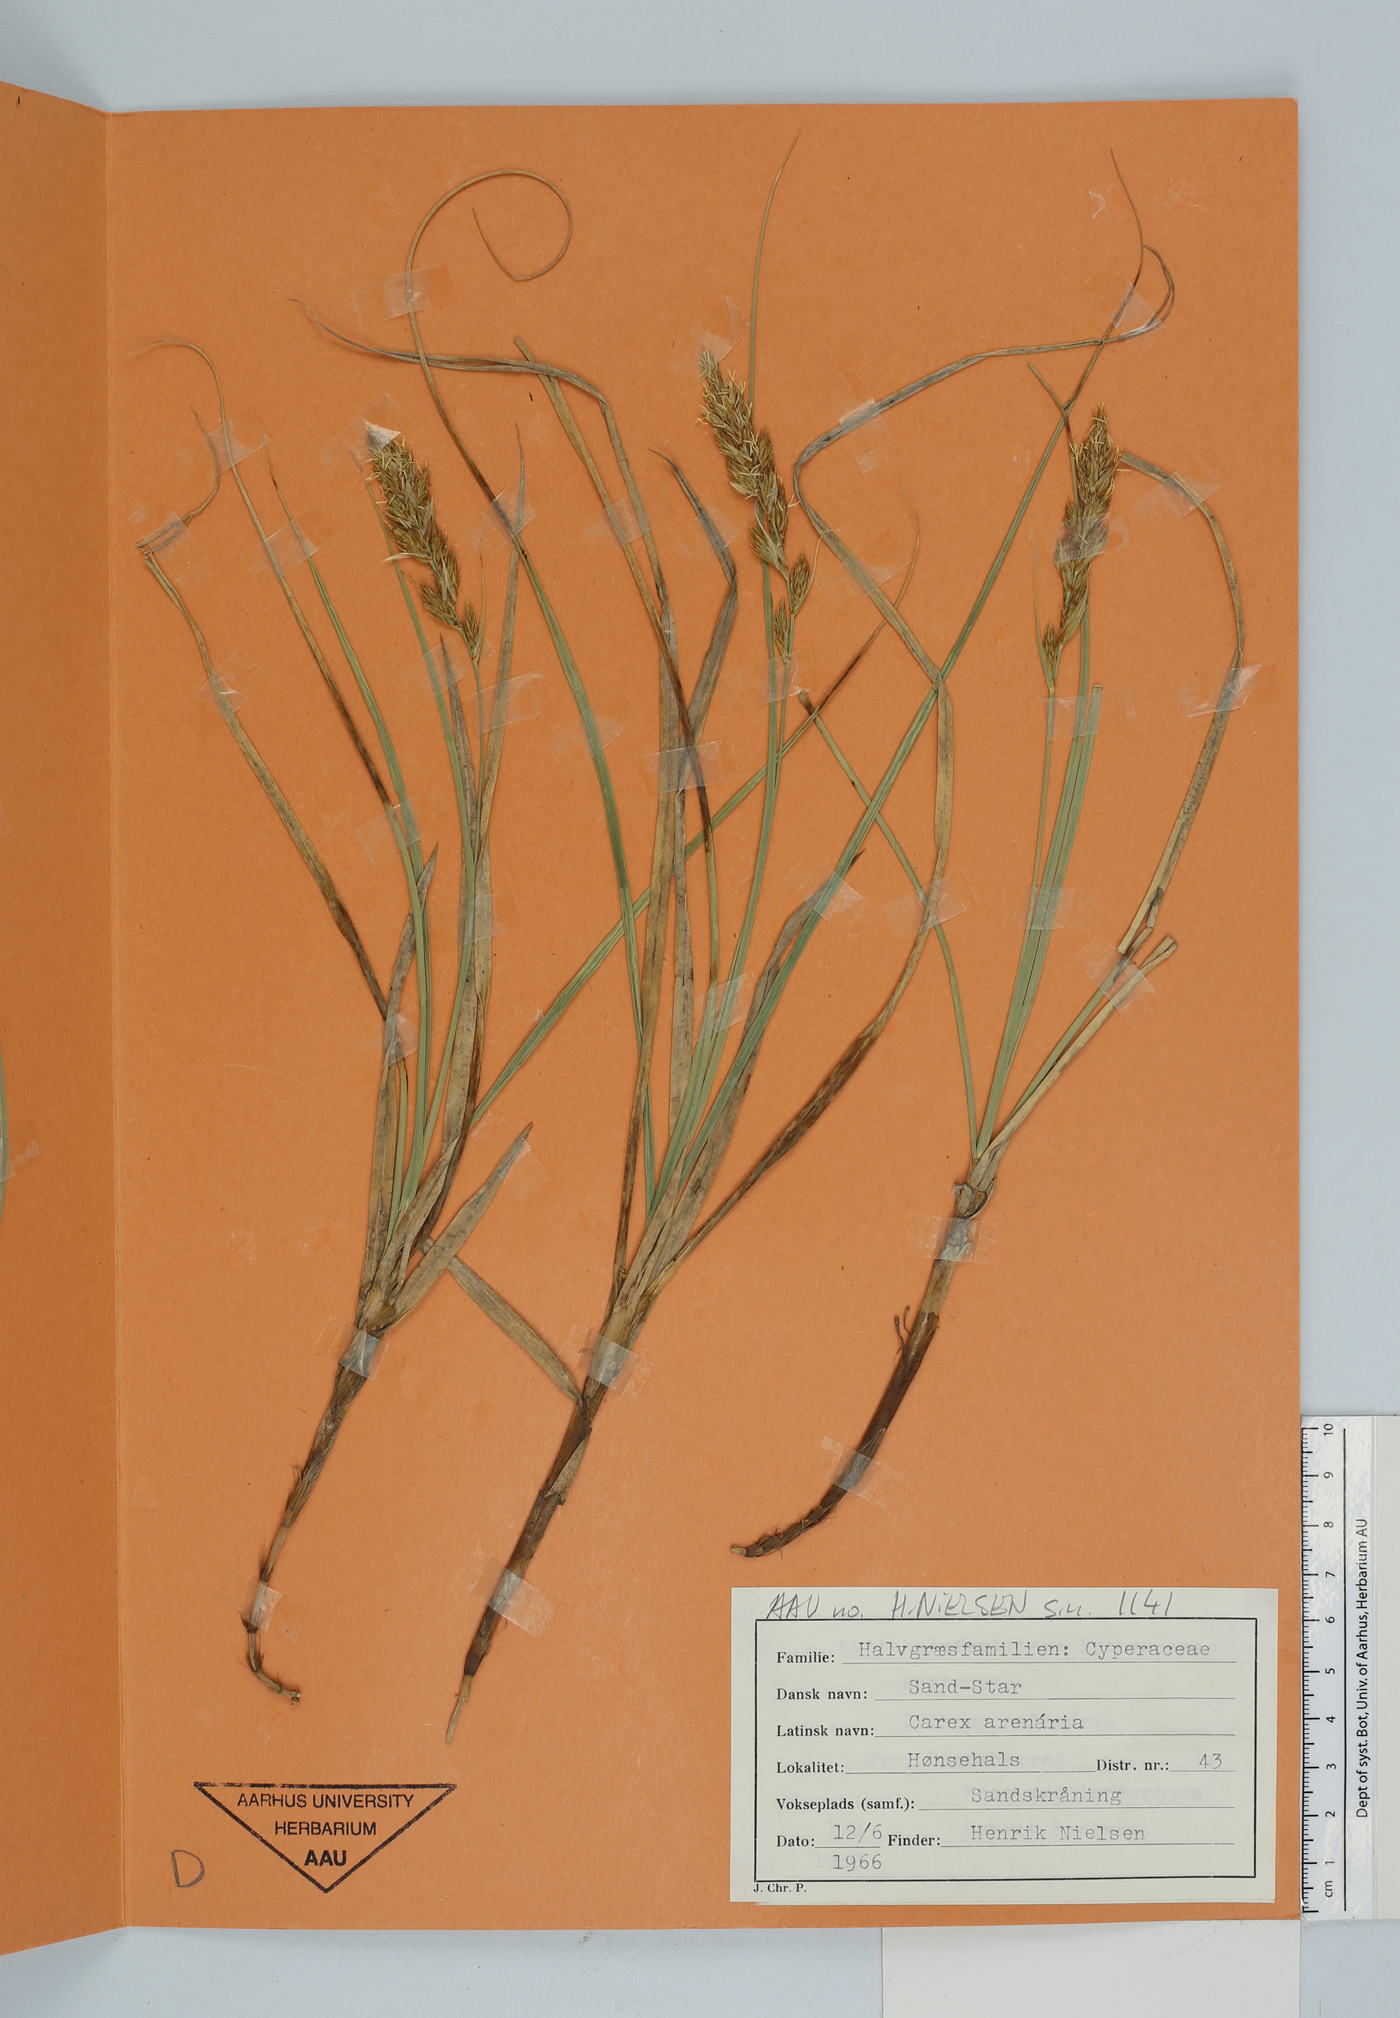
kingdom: Plantae
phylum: Tracheophyta
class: Liliopsida
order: Poales
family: Cyperaceae
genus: Carex
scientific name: Carex arenaria
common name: Sand sedge
